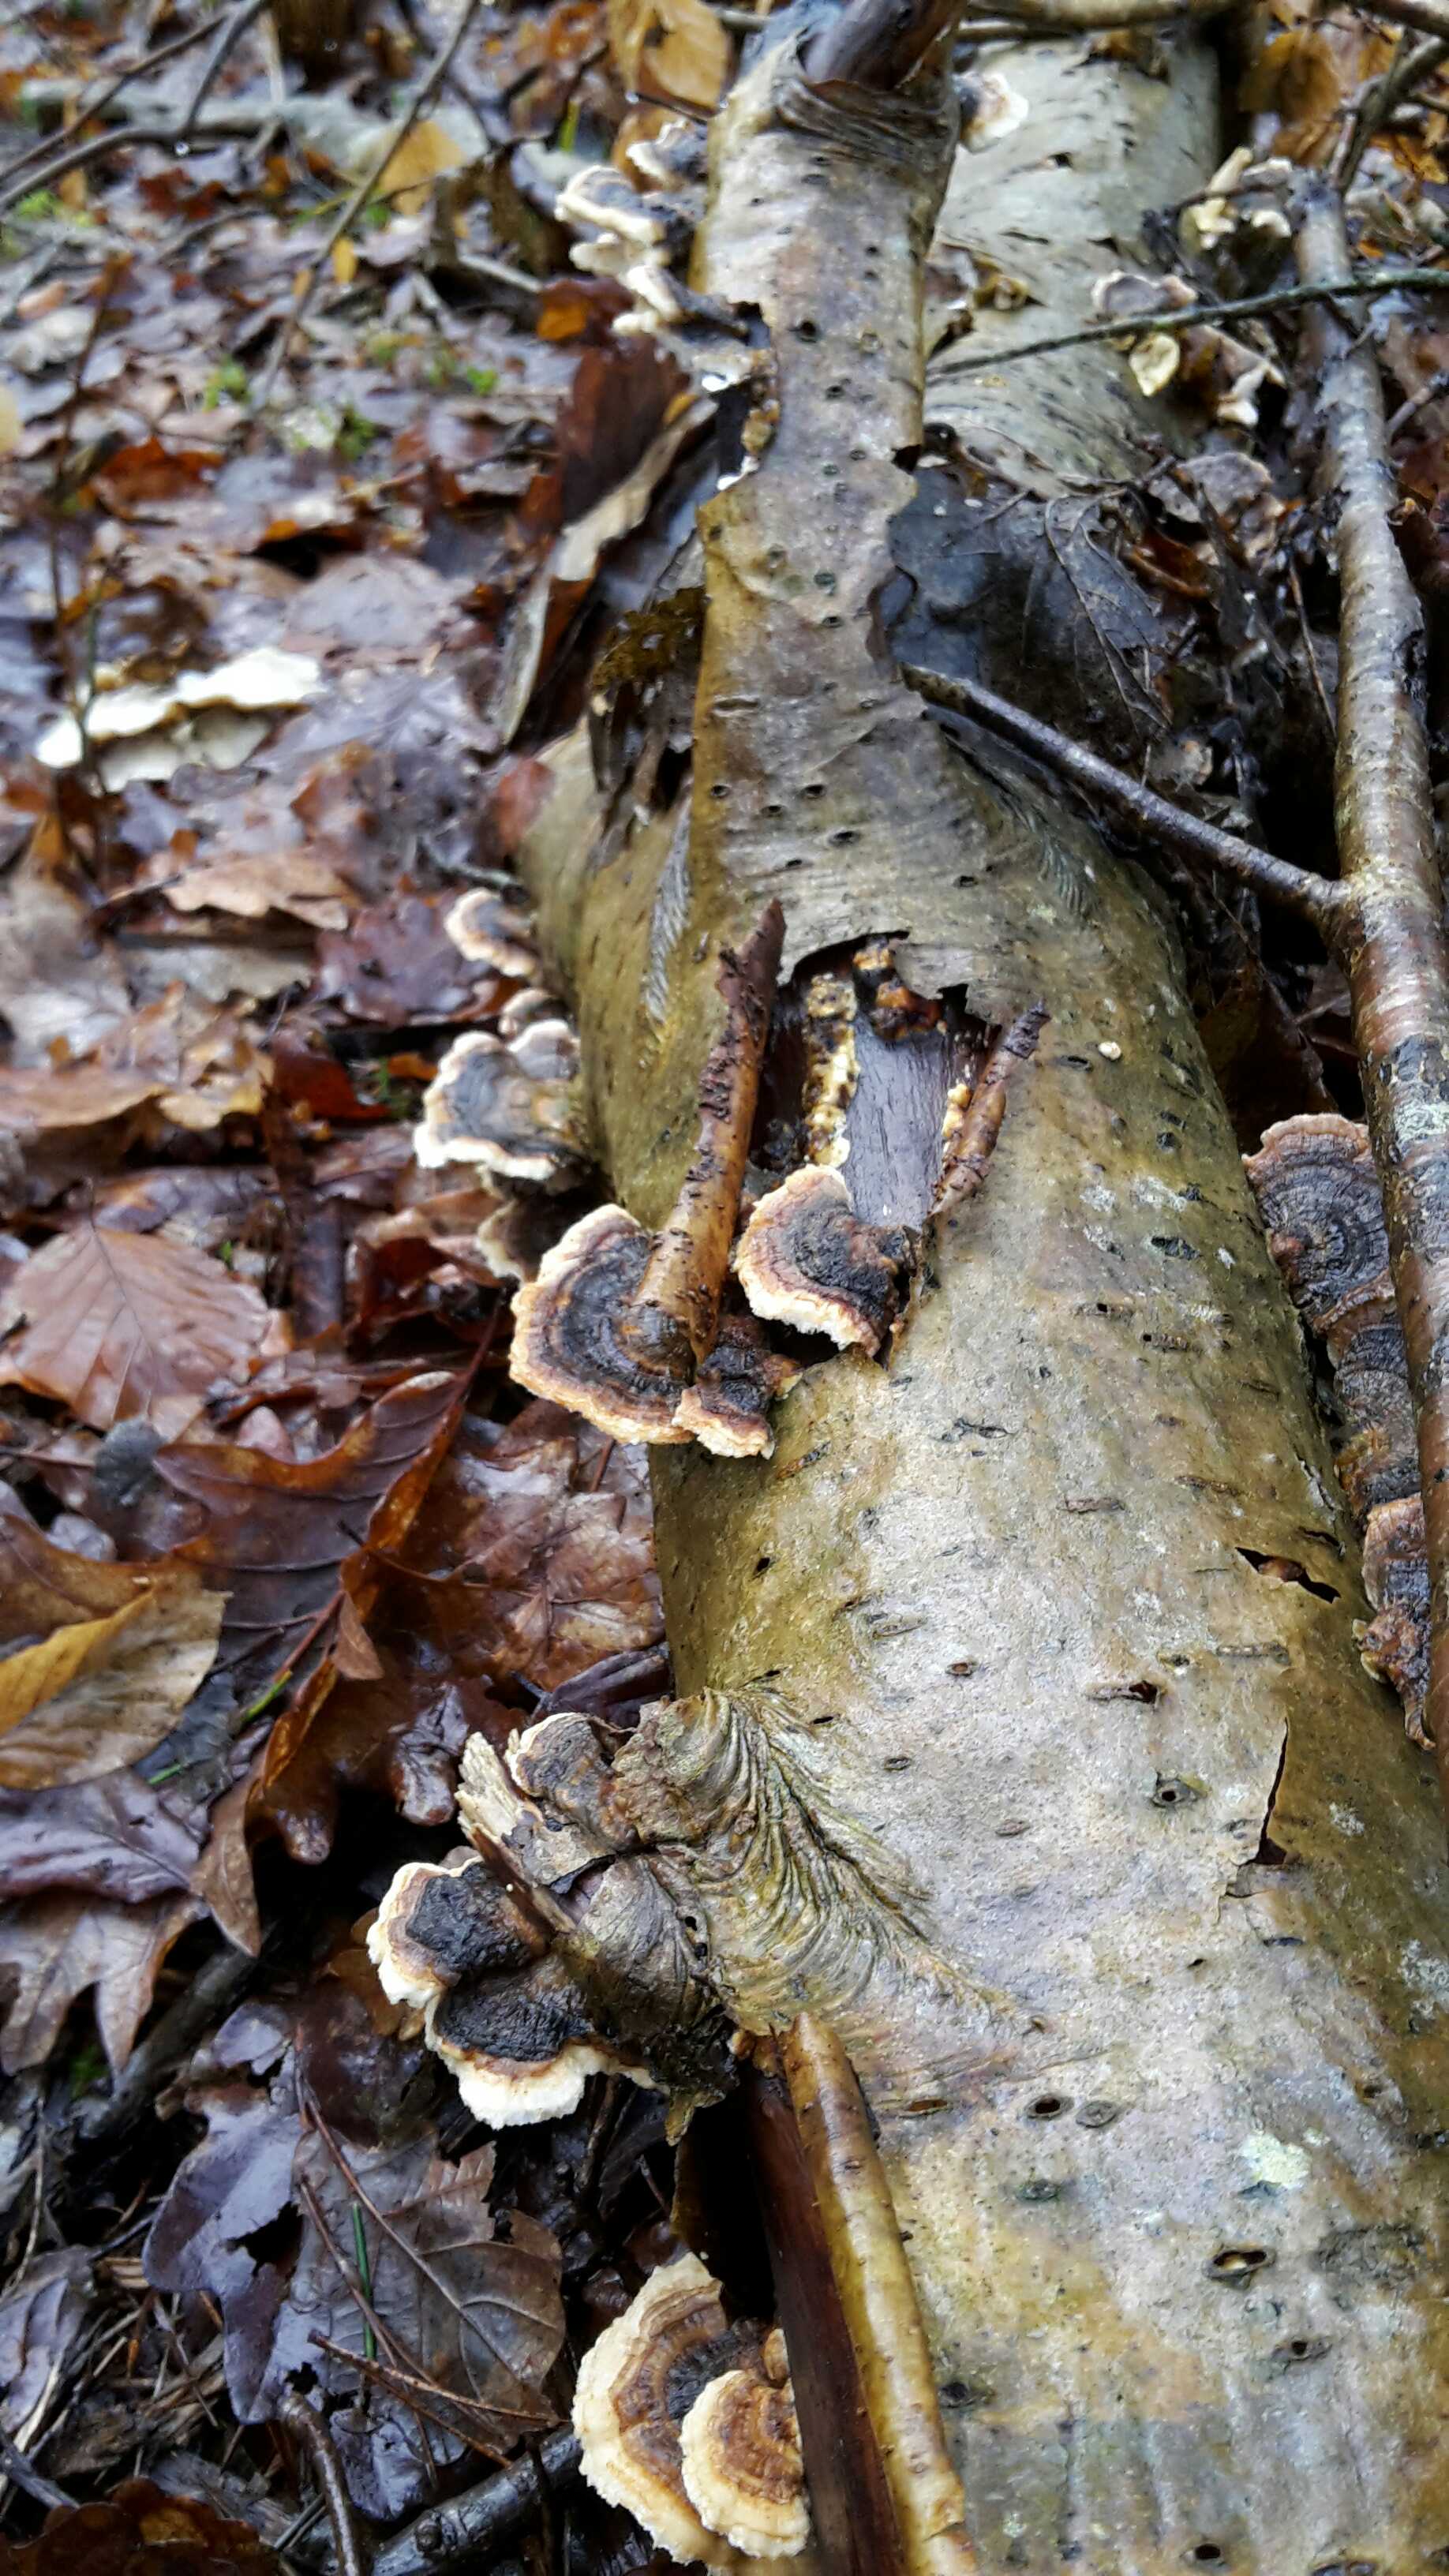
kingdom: Fungi
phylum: Basidiomycota
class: Agaricomycetes
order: Polyporales
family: Polyporaceae
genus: Trametes
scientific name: Trametes versicolor
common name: broget læderporesvamp
